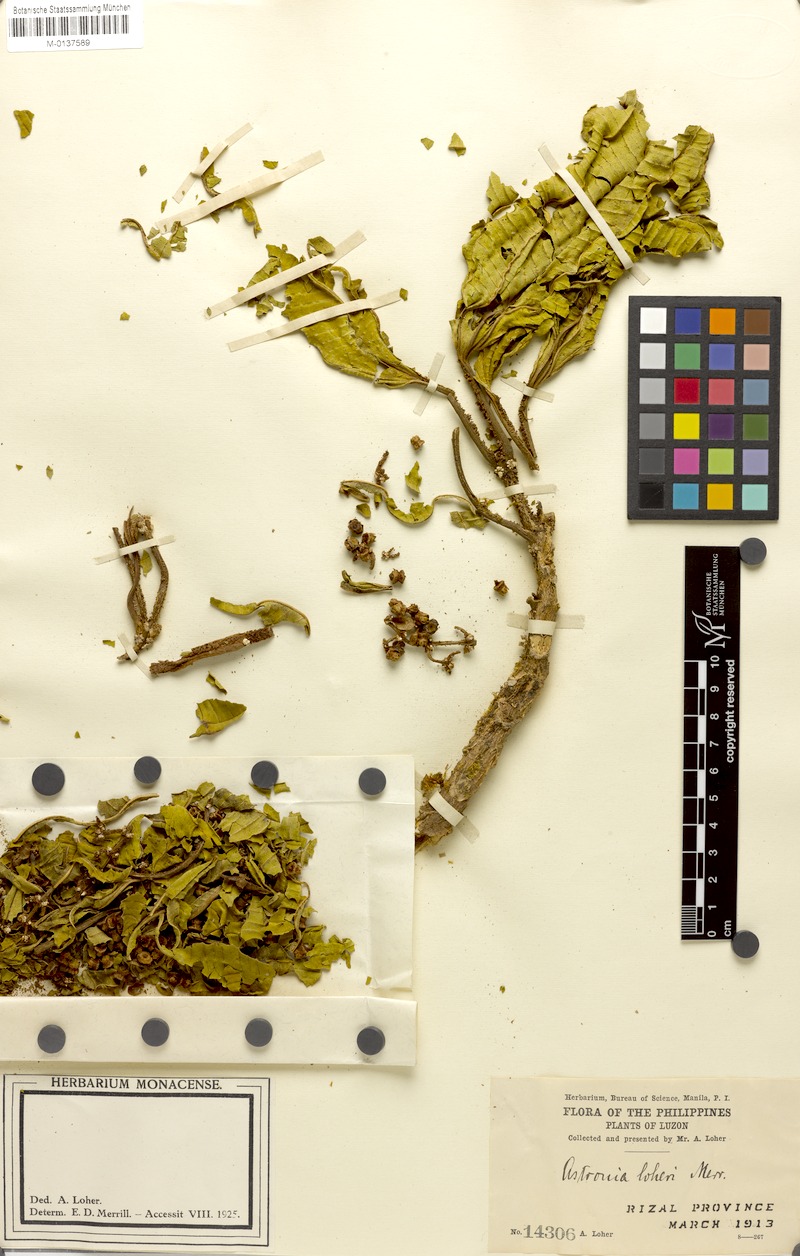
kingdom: Plantae
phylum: Tracheophyta
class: Magnoliopsida
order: Myrtales
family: Melastomataceae
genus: Astronia
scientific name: Astronia lagunensis
